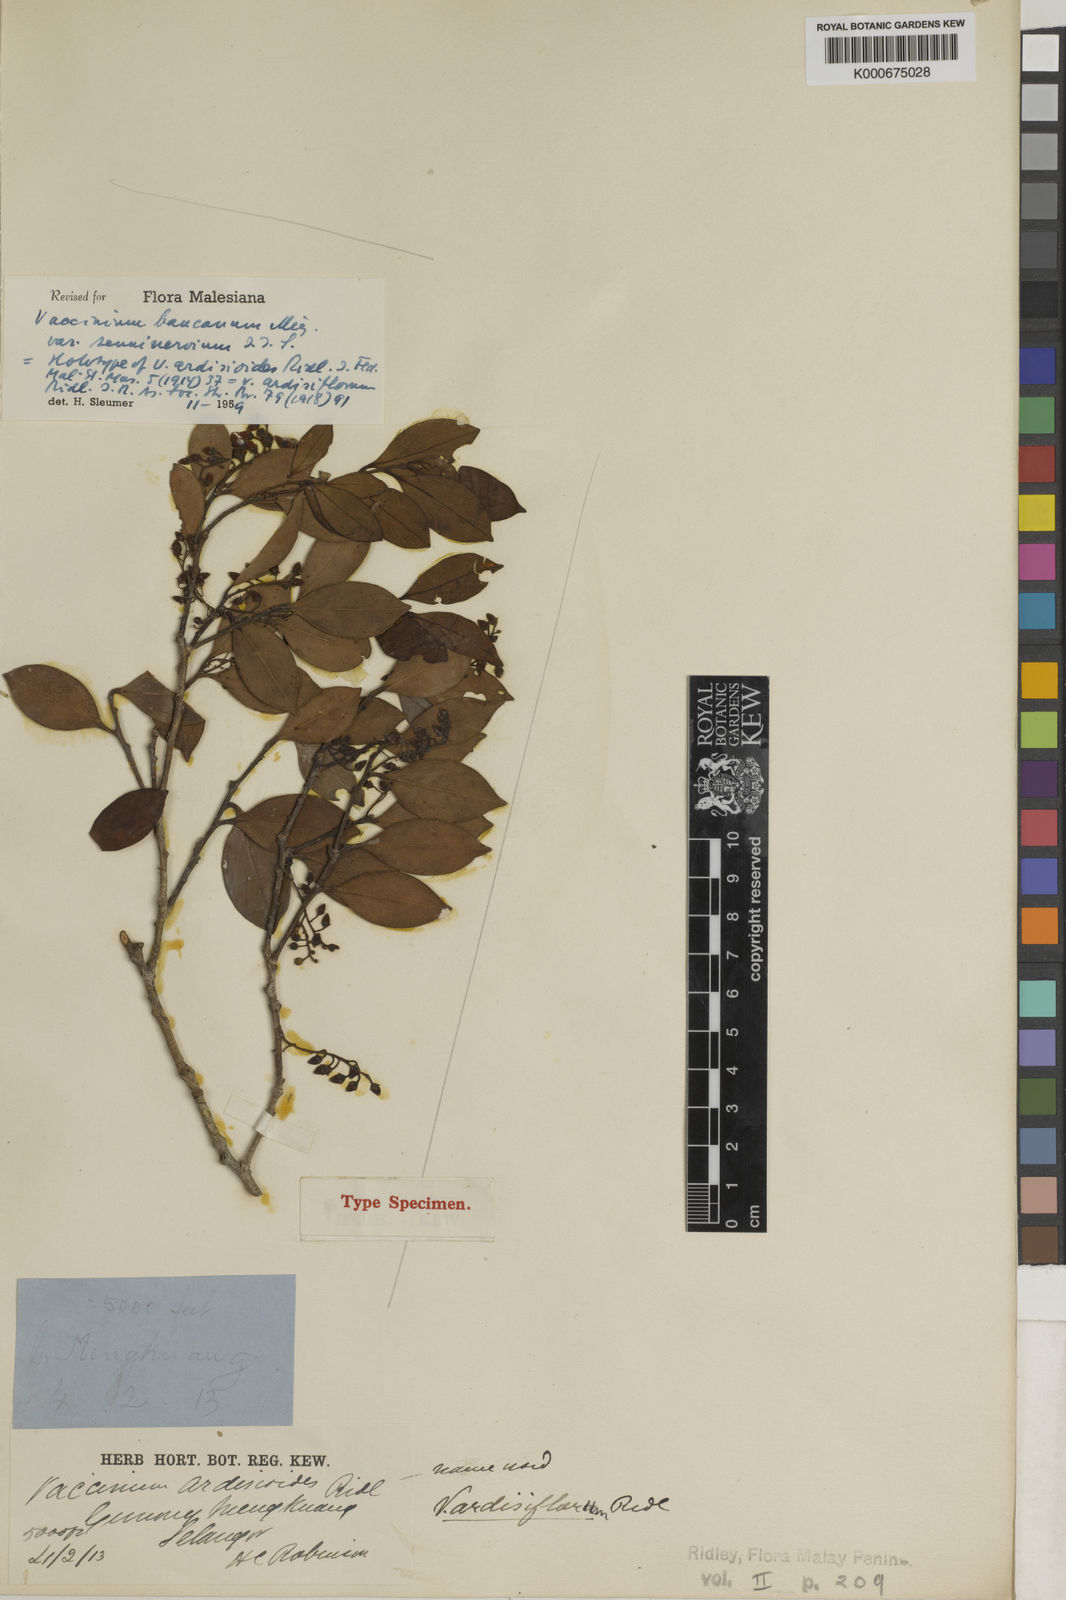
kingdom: Plantae
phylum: Tracheophyta
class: Magnoliopsida
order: Ericales
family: Ericaceae
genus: Vaccinium
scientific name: Vaccinium bancanum
